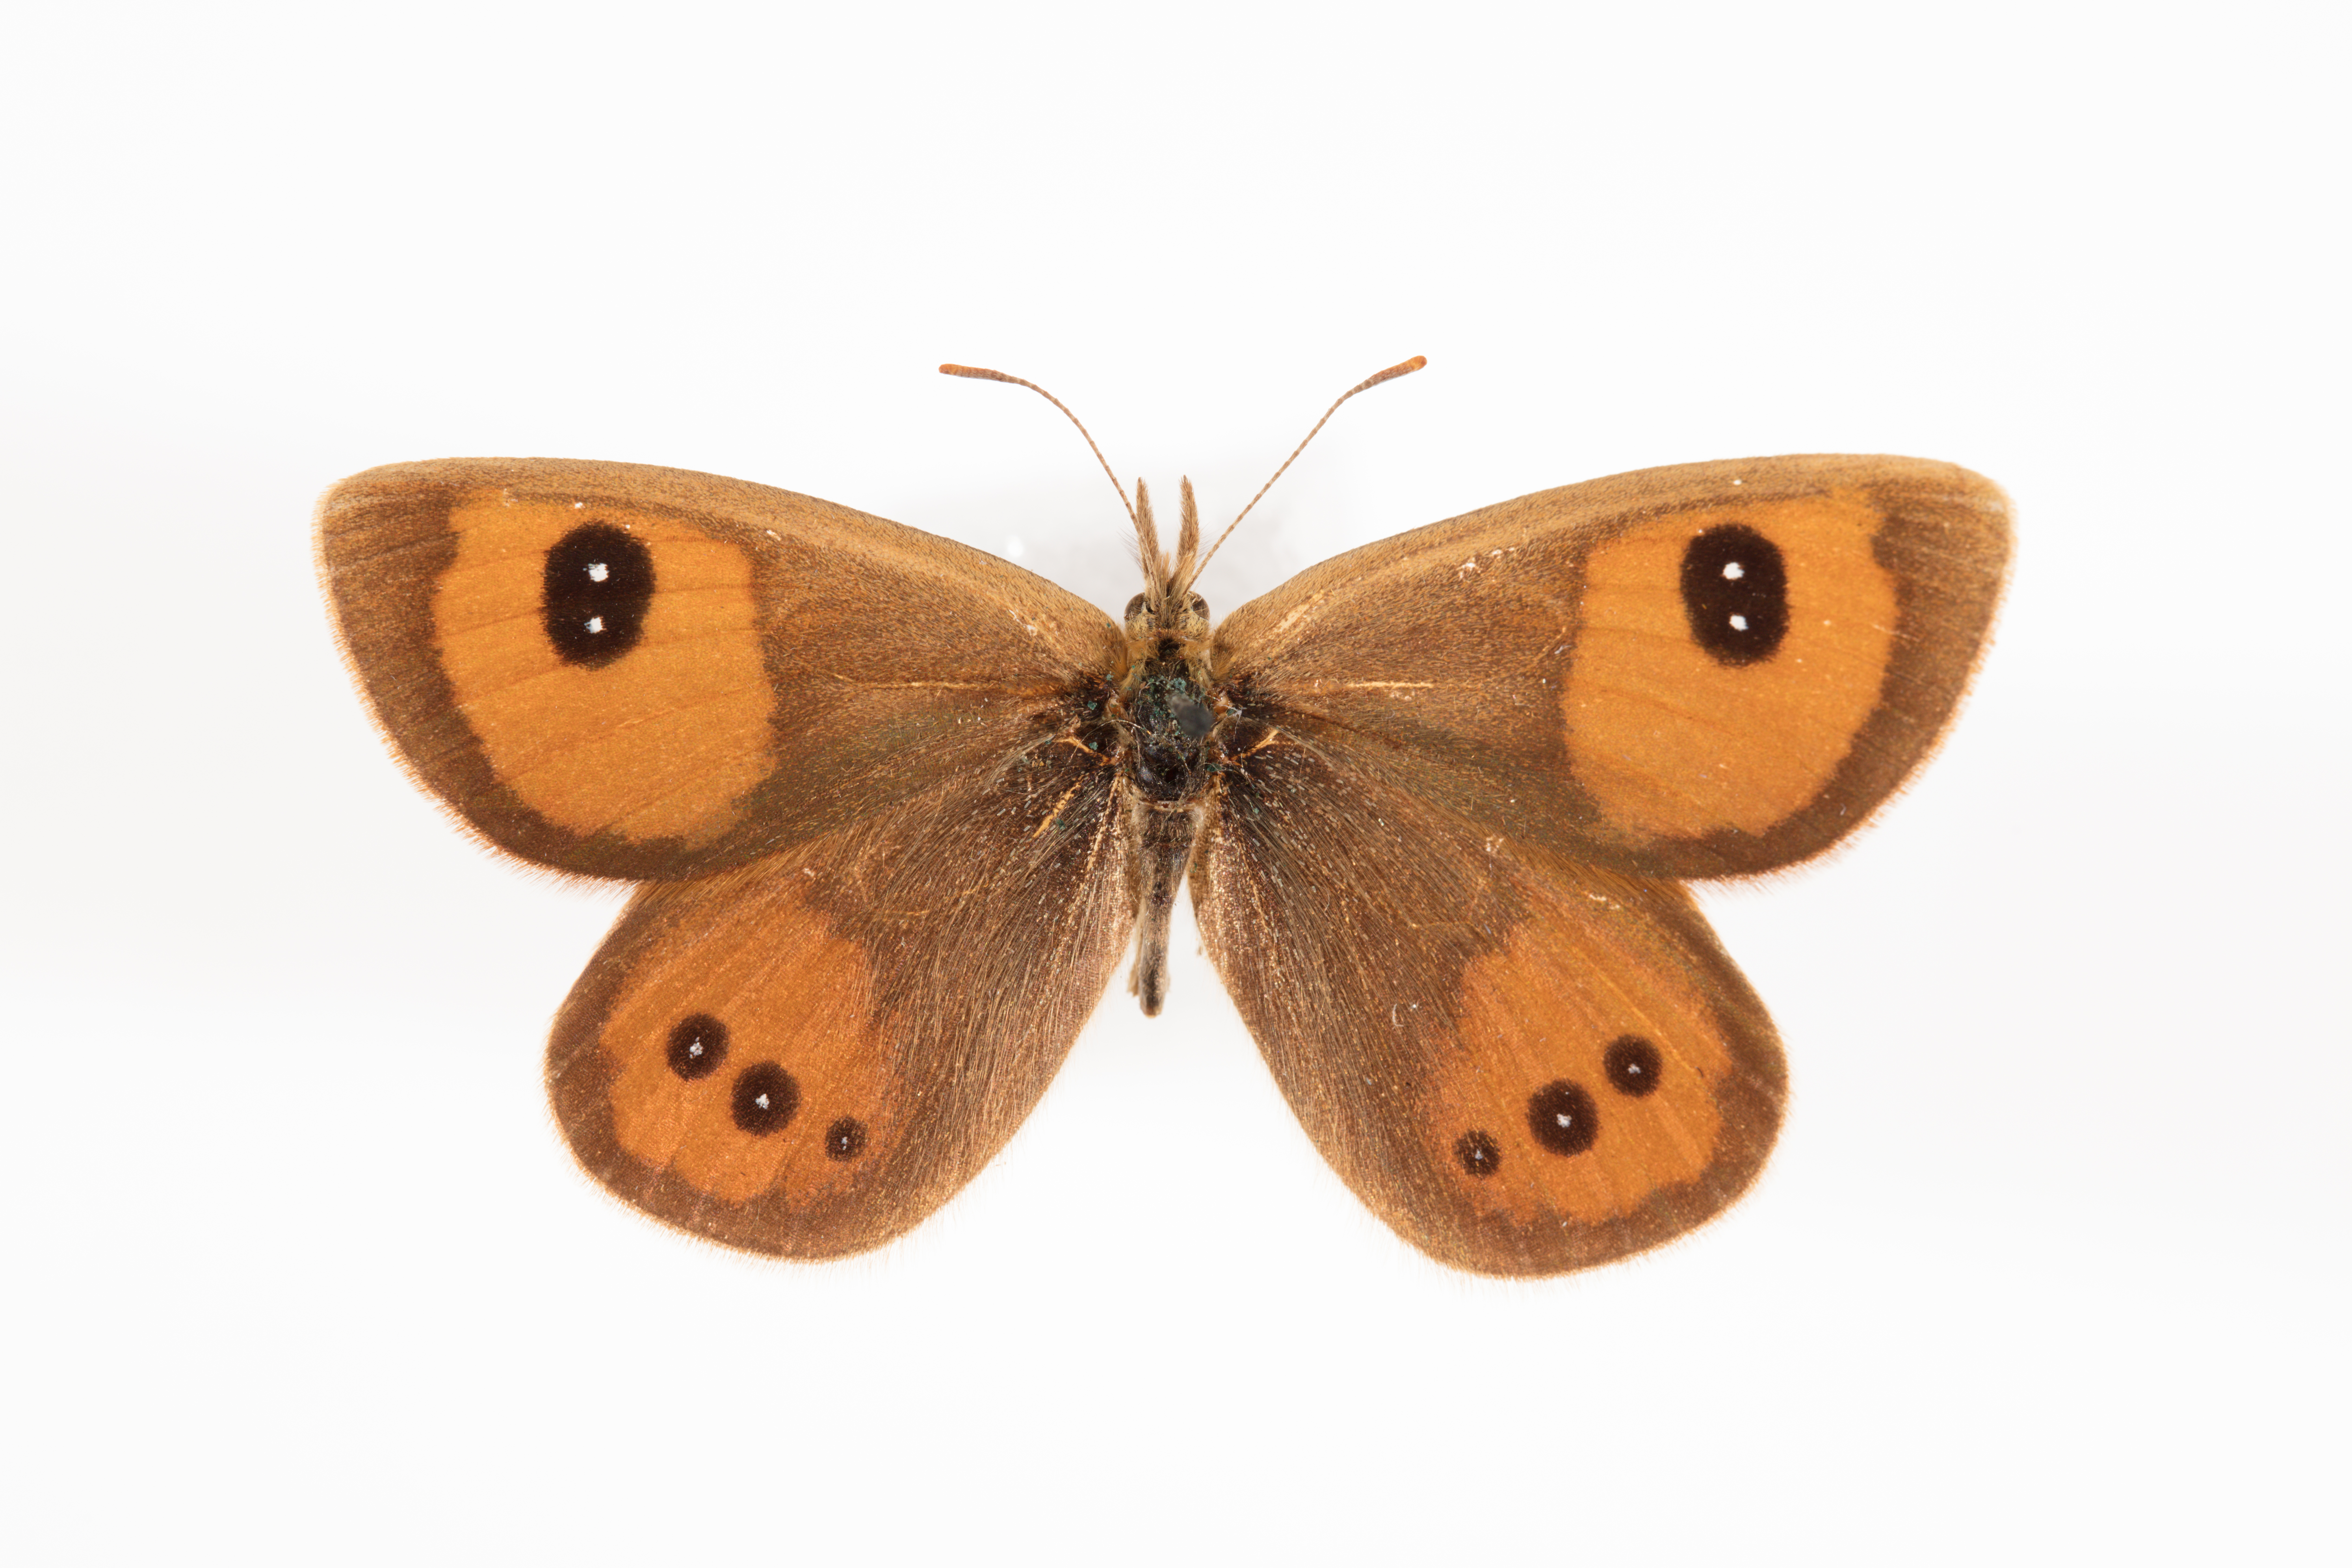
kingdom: Animalia
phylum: Arthropoda
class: Insecta
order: Lepidoptera
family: Nymphalidae
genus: Argyrophenga
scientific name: Argyrophenga antipodum
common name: Common tussock butterfly
